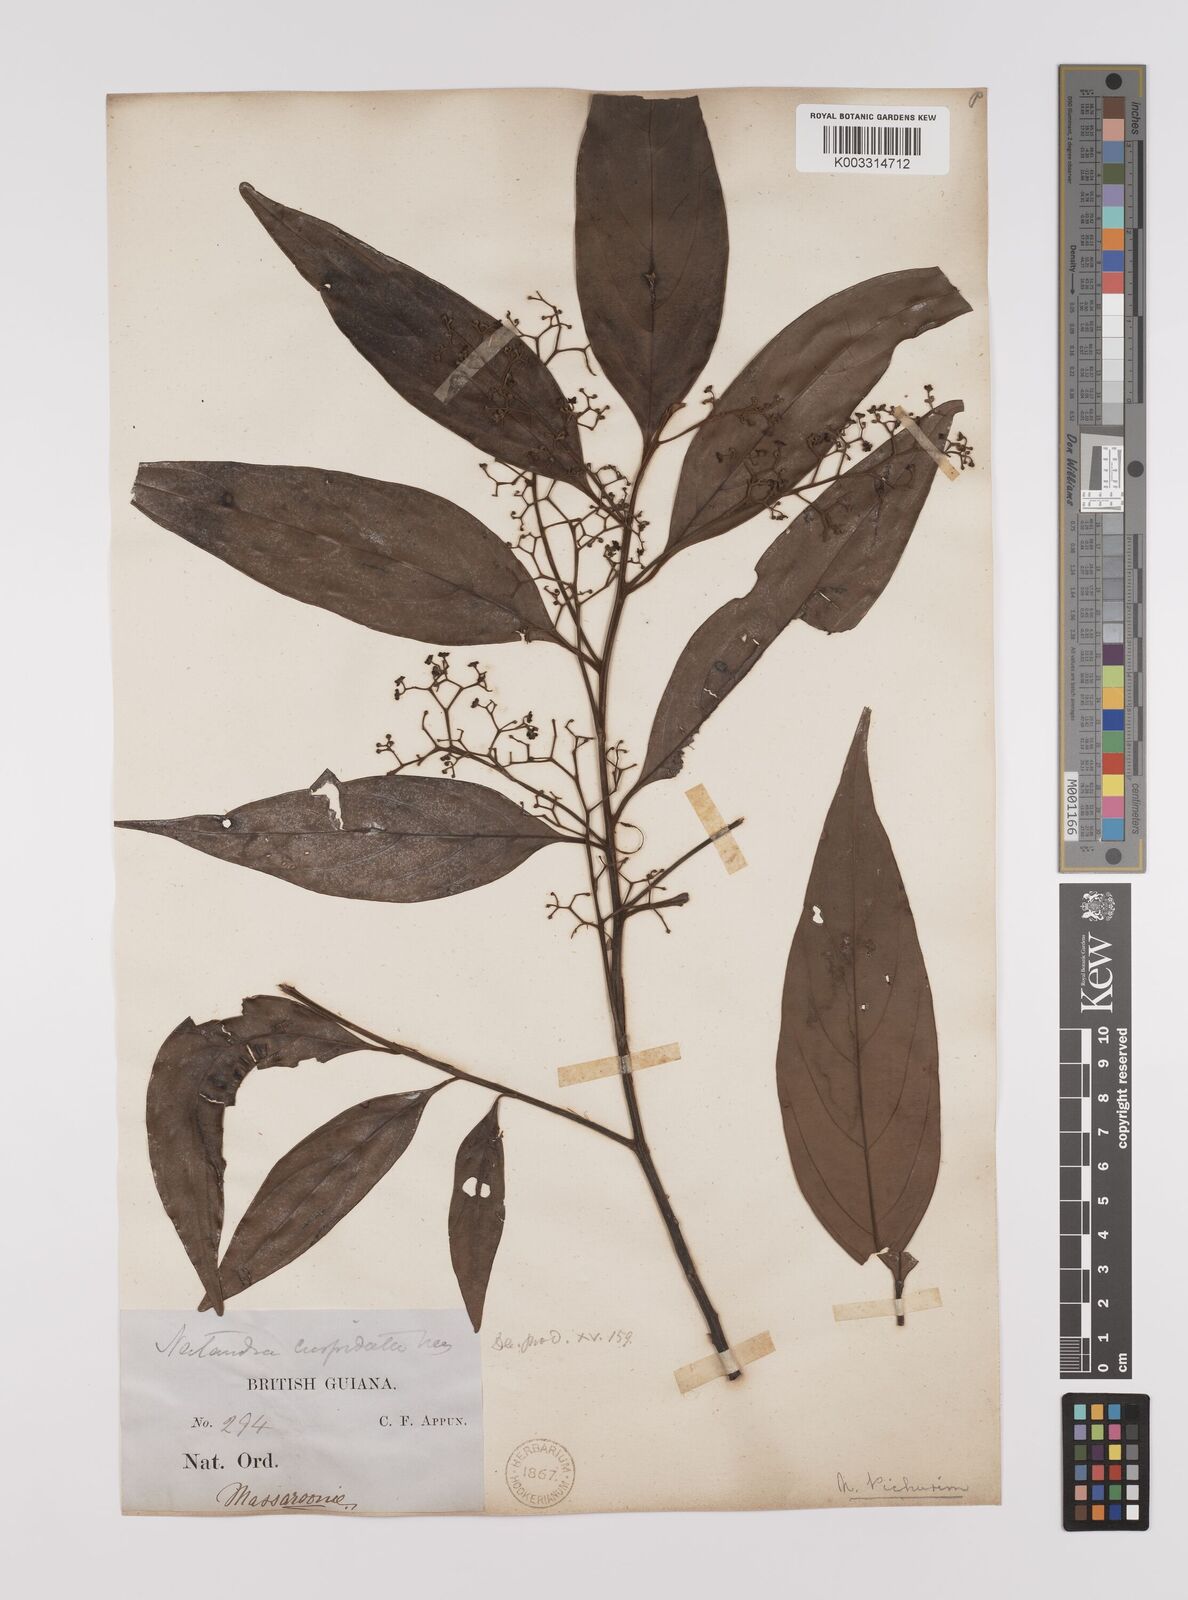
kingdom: Plantae
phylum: Tracheophyta
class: Magnoliopsida
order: Laurales
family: Lauraceae
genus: Nectandra
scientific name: Nectandra cuspidata
